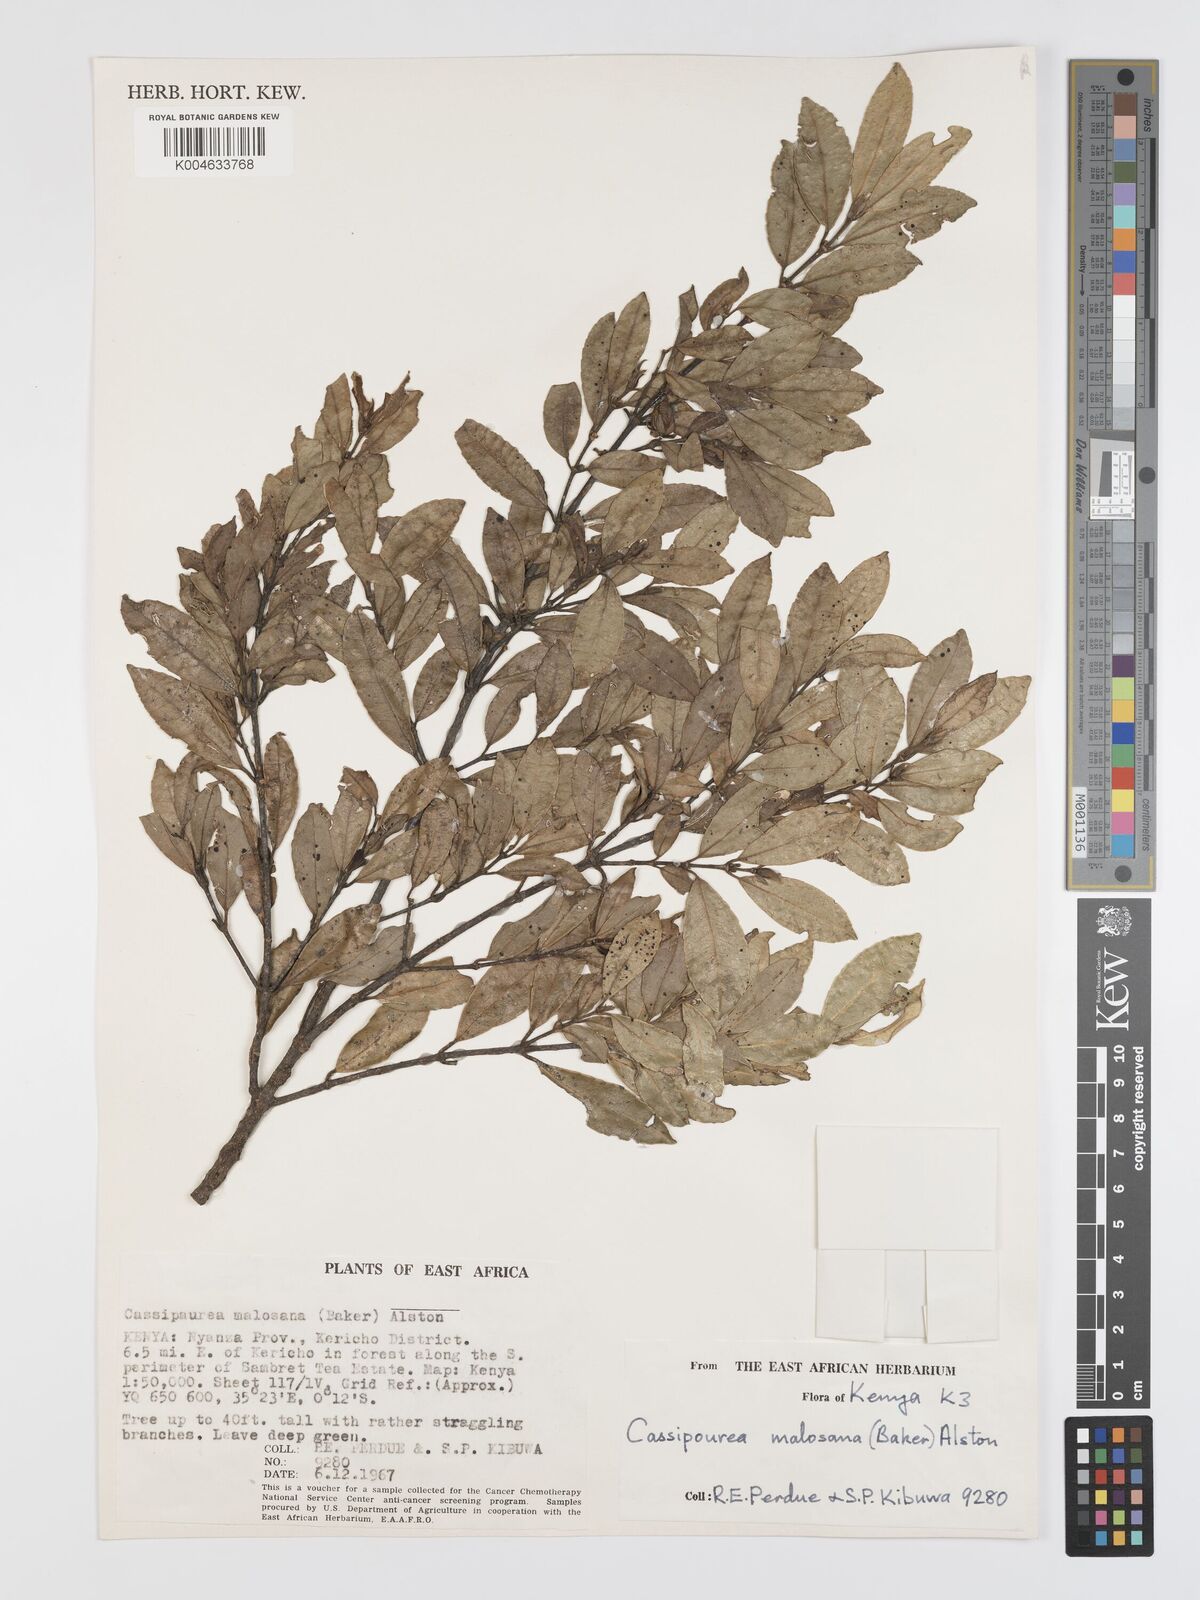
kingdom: Plantae
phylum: Tracheophyta
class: Magnoliopsida
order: Malpighiales
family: Rhizophoraceae
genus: Cassipourea
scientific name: Cassipourea malosana
